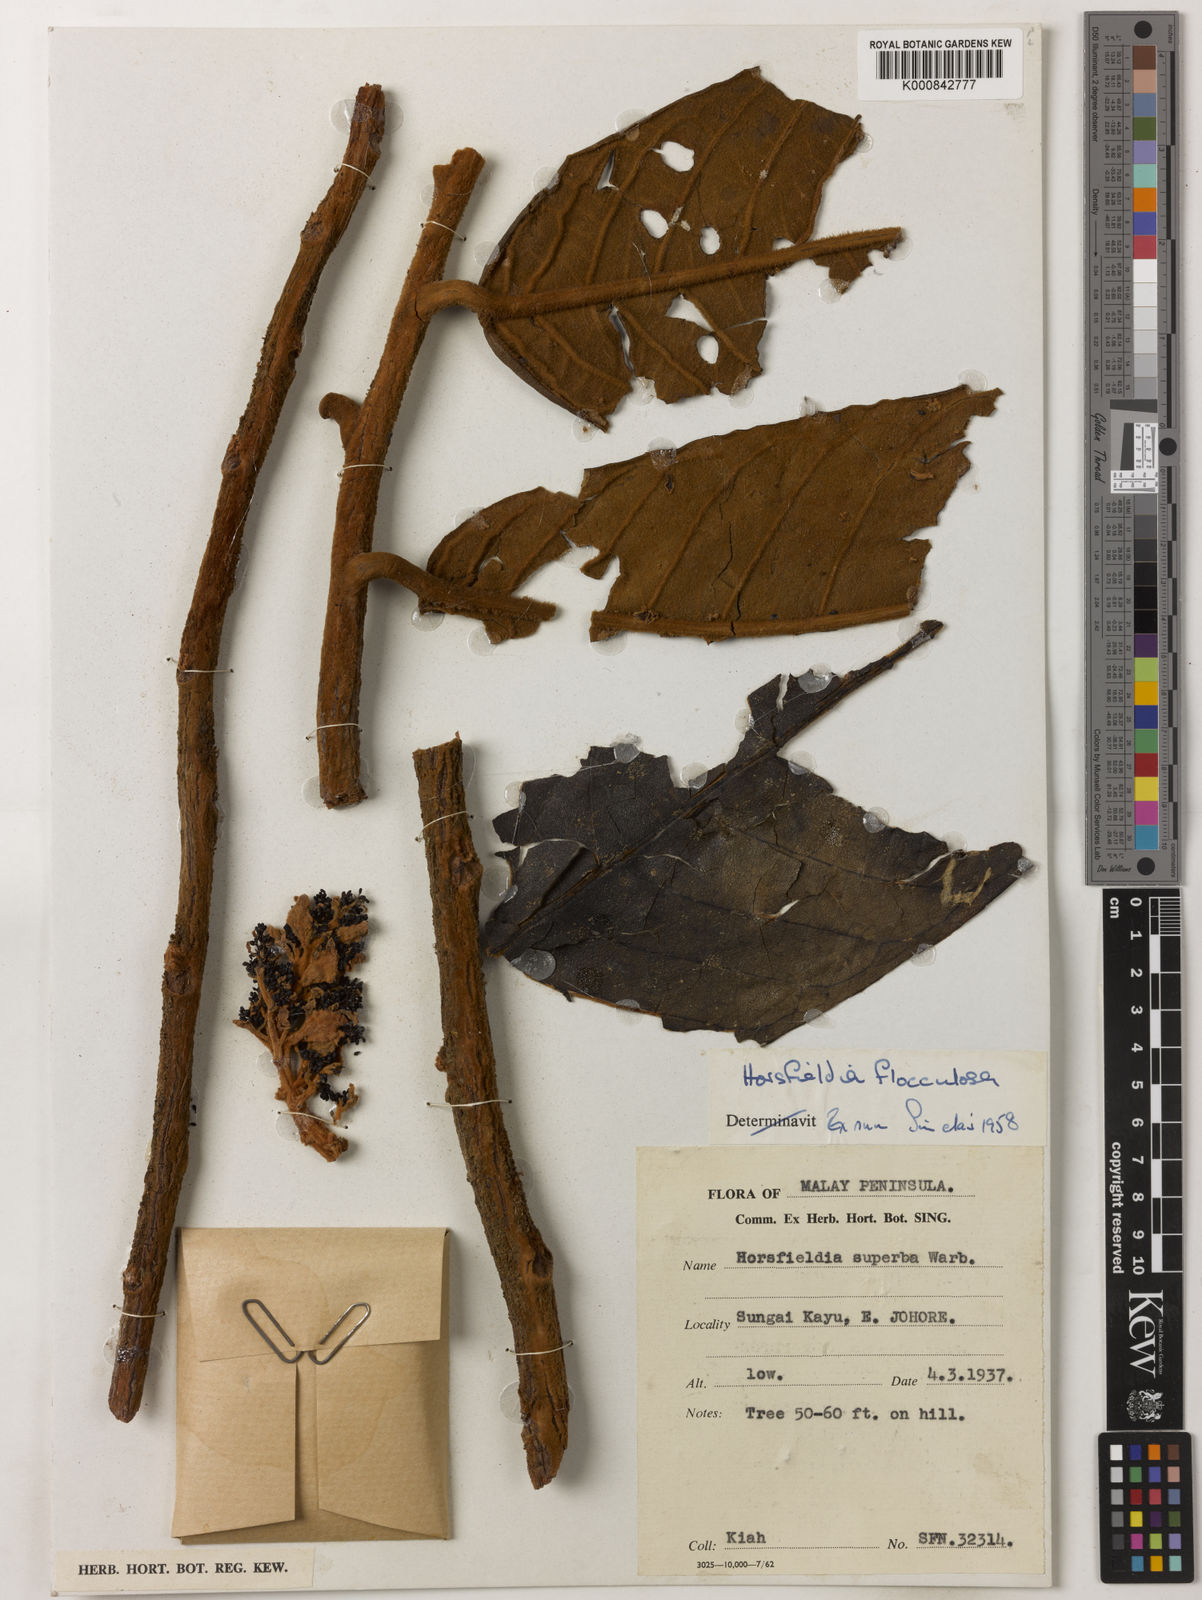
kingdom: Plantae
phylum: Tracheophyta
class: Magnoliopsida
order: Magnoliales
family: Myristicaceae
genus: Horsfieldia
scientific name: Horsfieldia flocculosa
